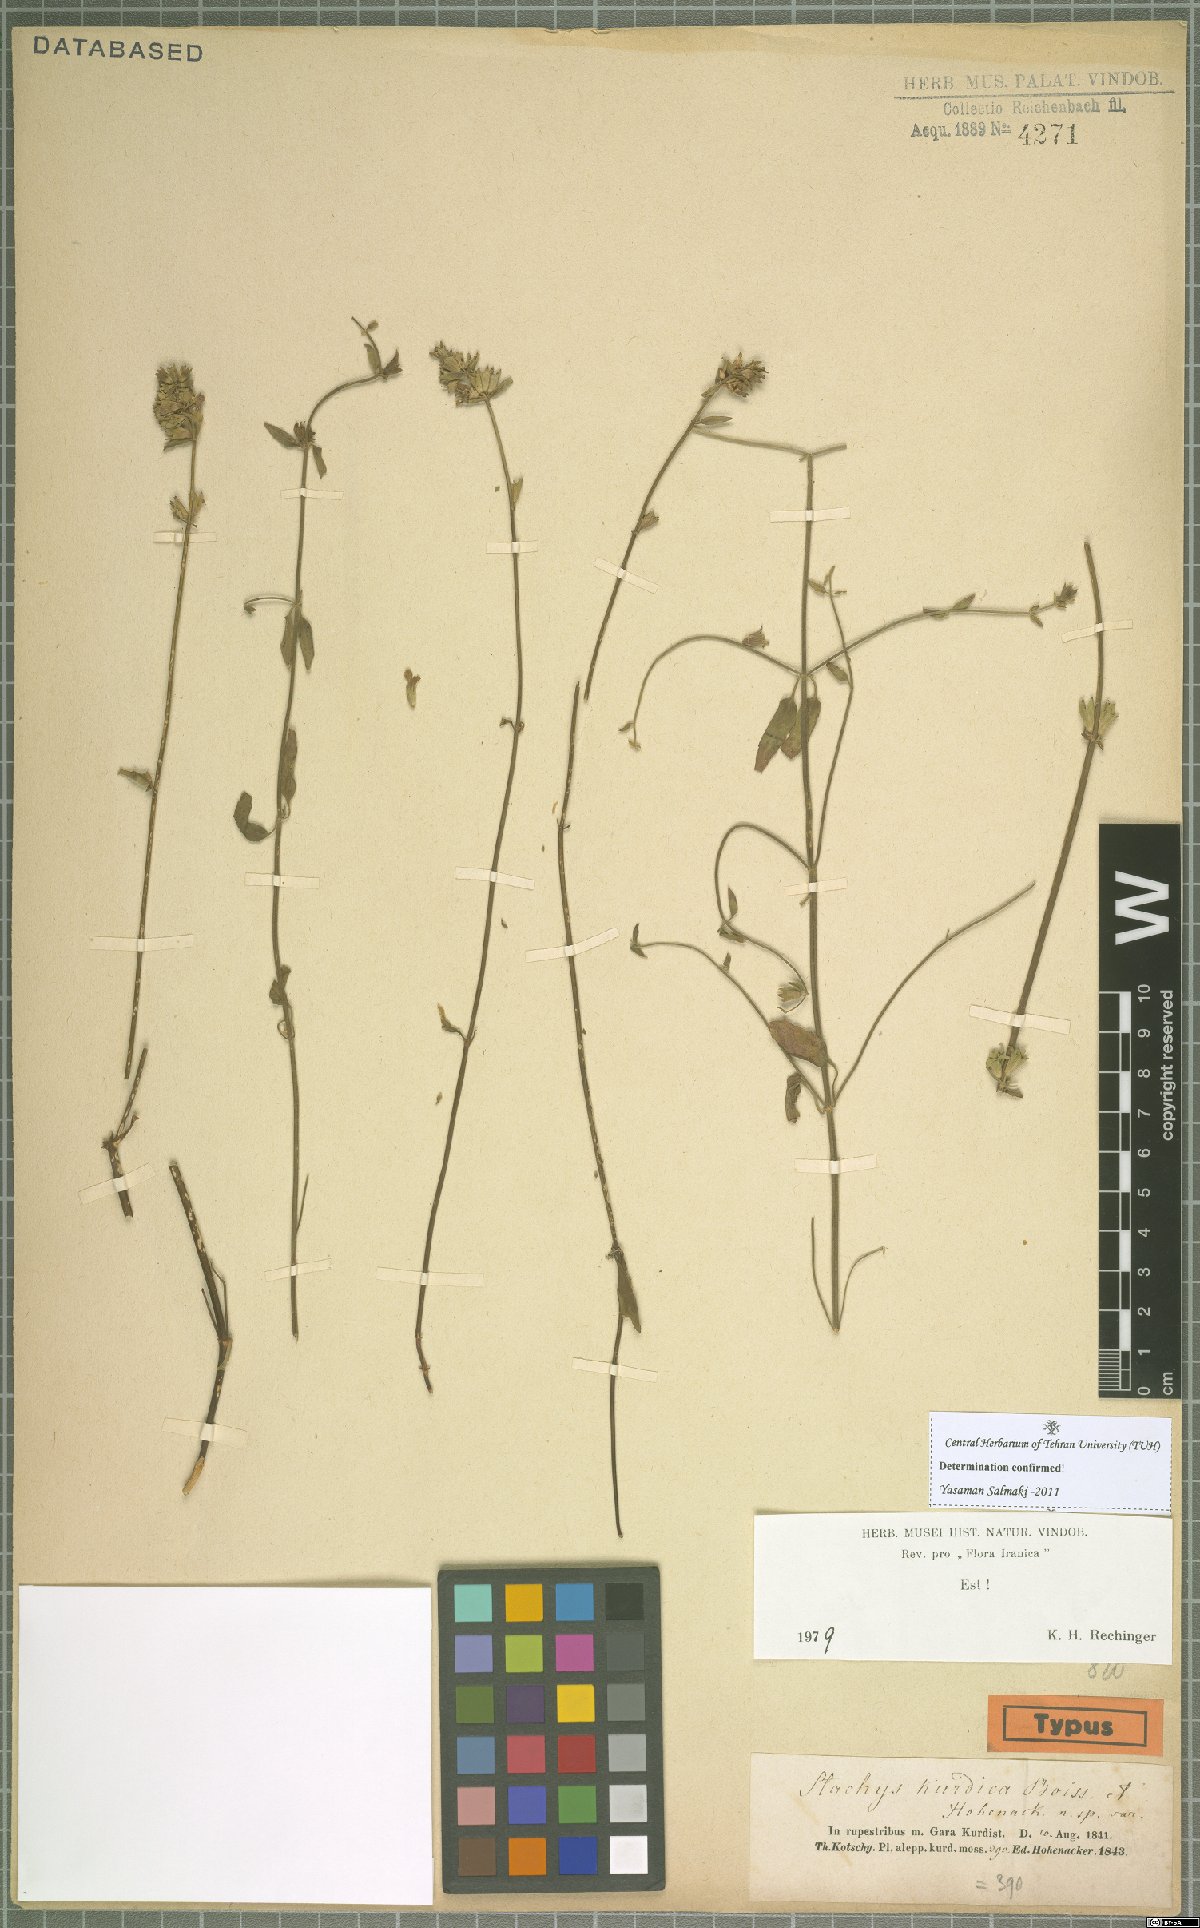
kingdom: Plantae
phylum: Tracheophyta
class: Magnoliopsida
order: Lamiales
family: Lamiaceae
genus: Stachys
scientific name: Stachys kurdica
